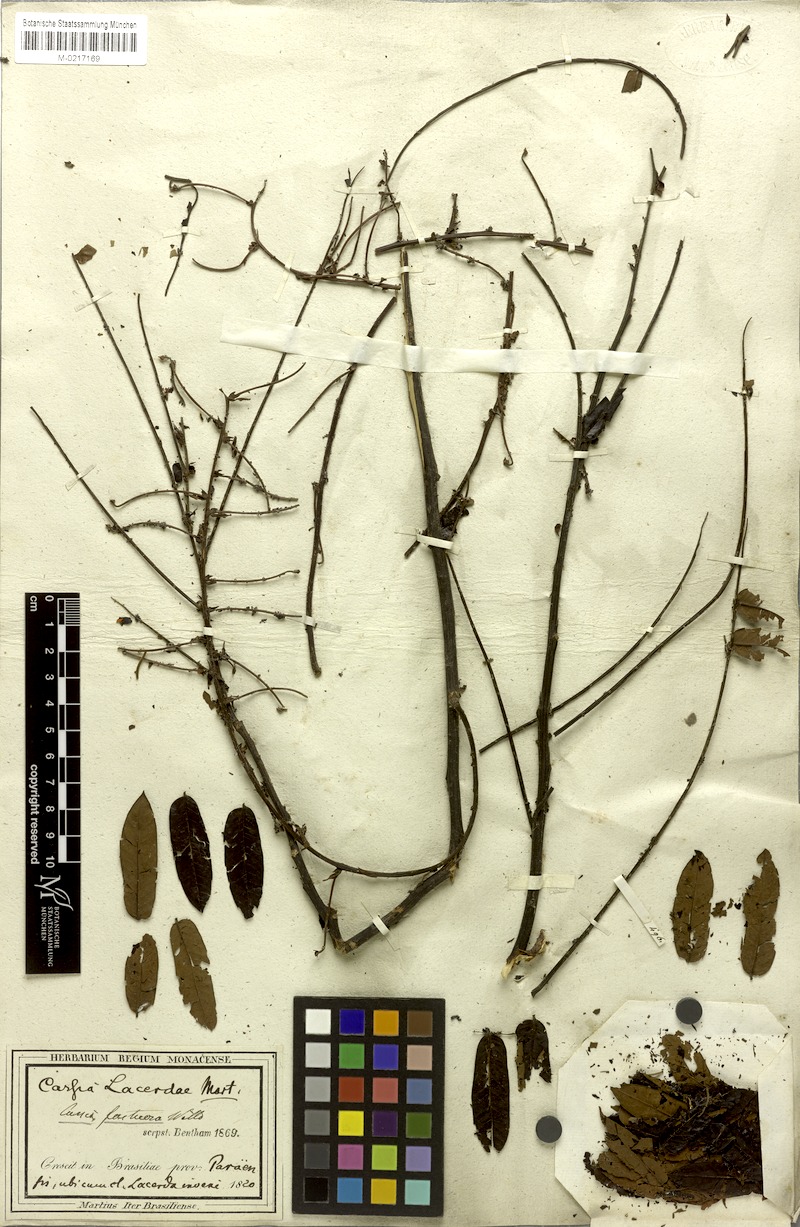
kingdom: Plantae
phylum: Tracheophyta
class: Magnoliopsida
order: Fabales
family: Fabaceae
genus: Cassia
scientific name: Cassia
